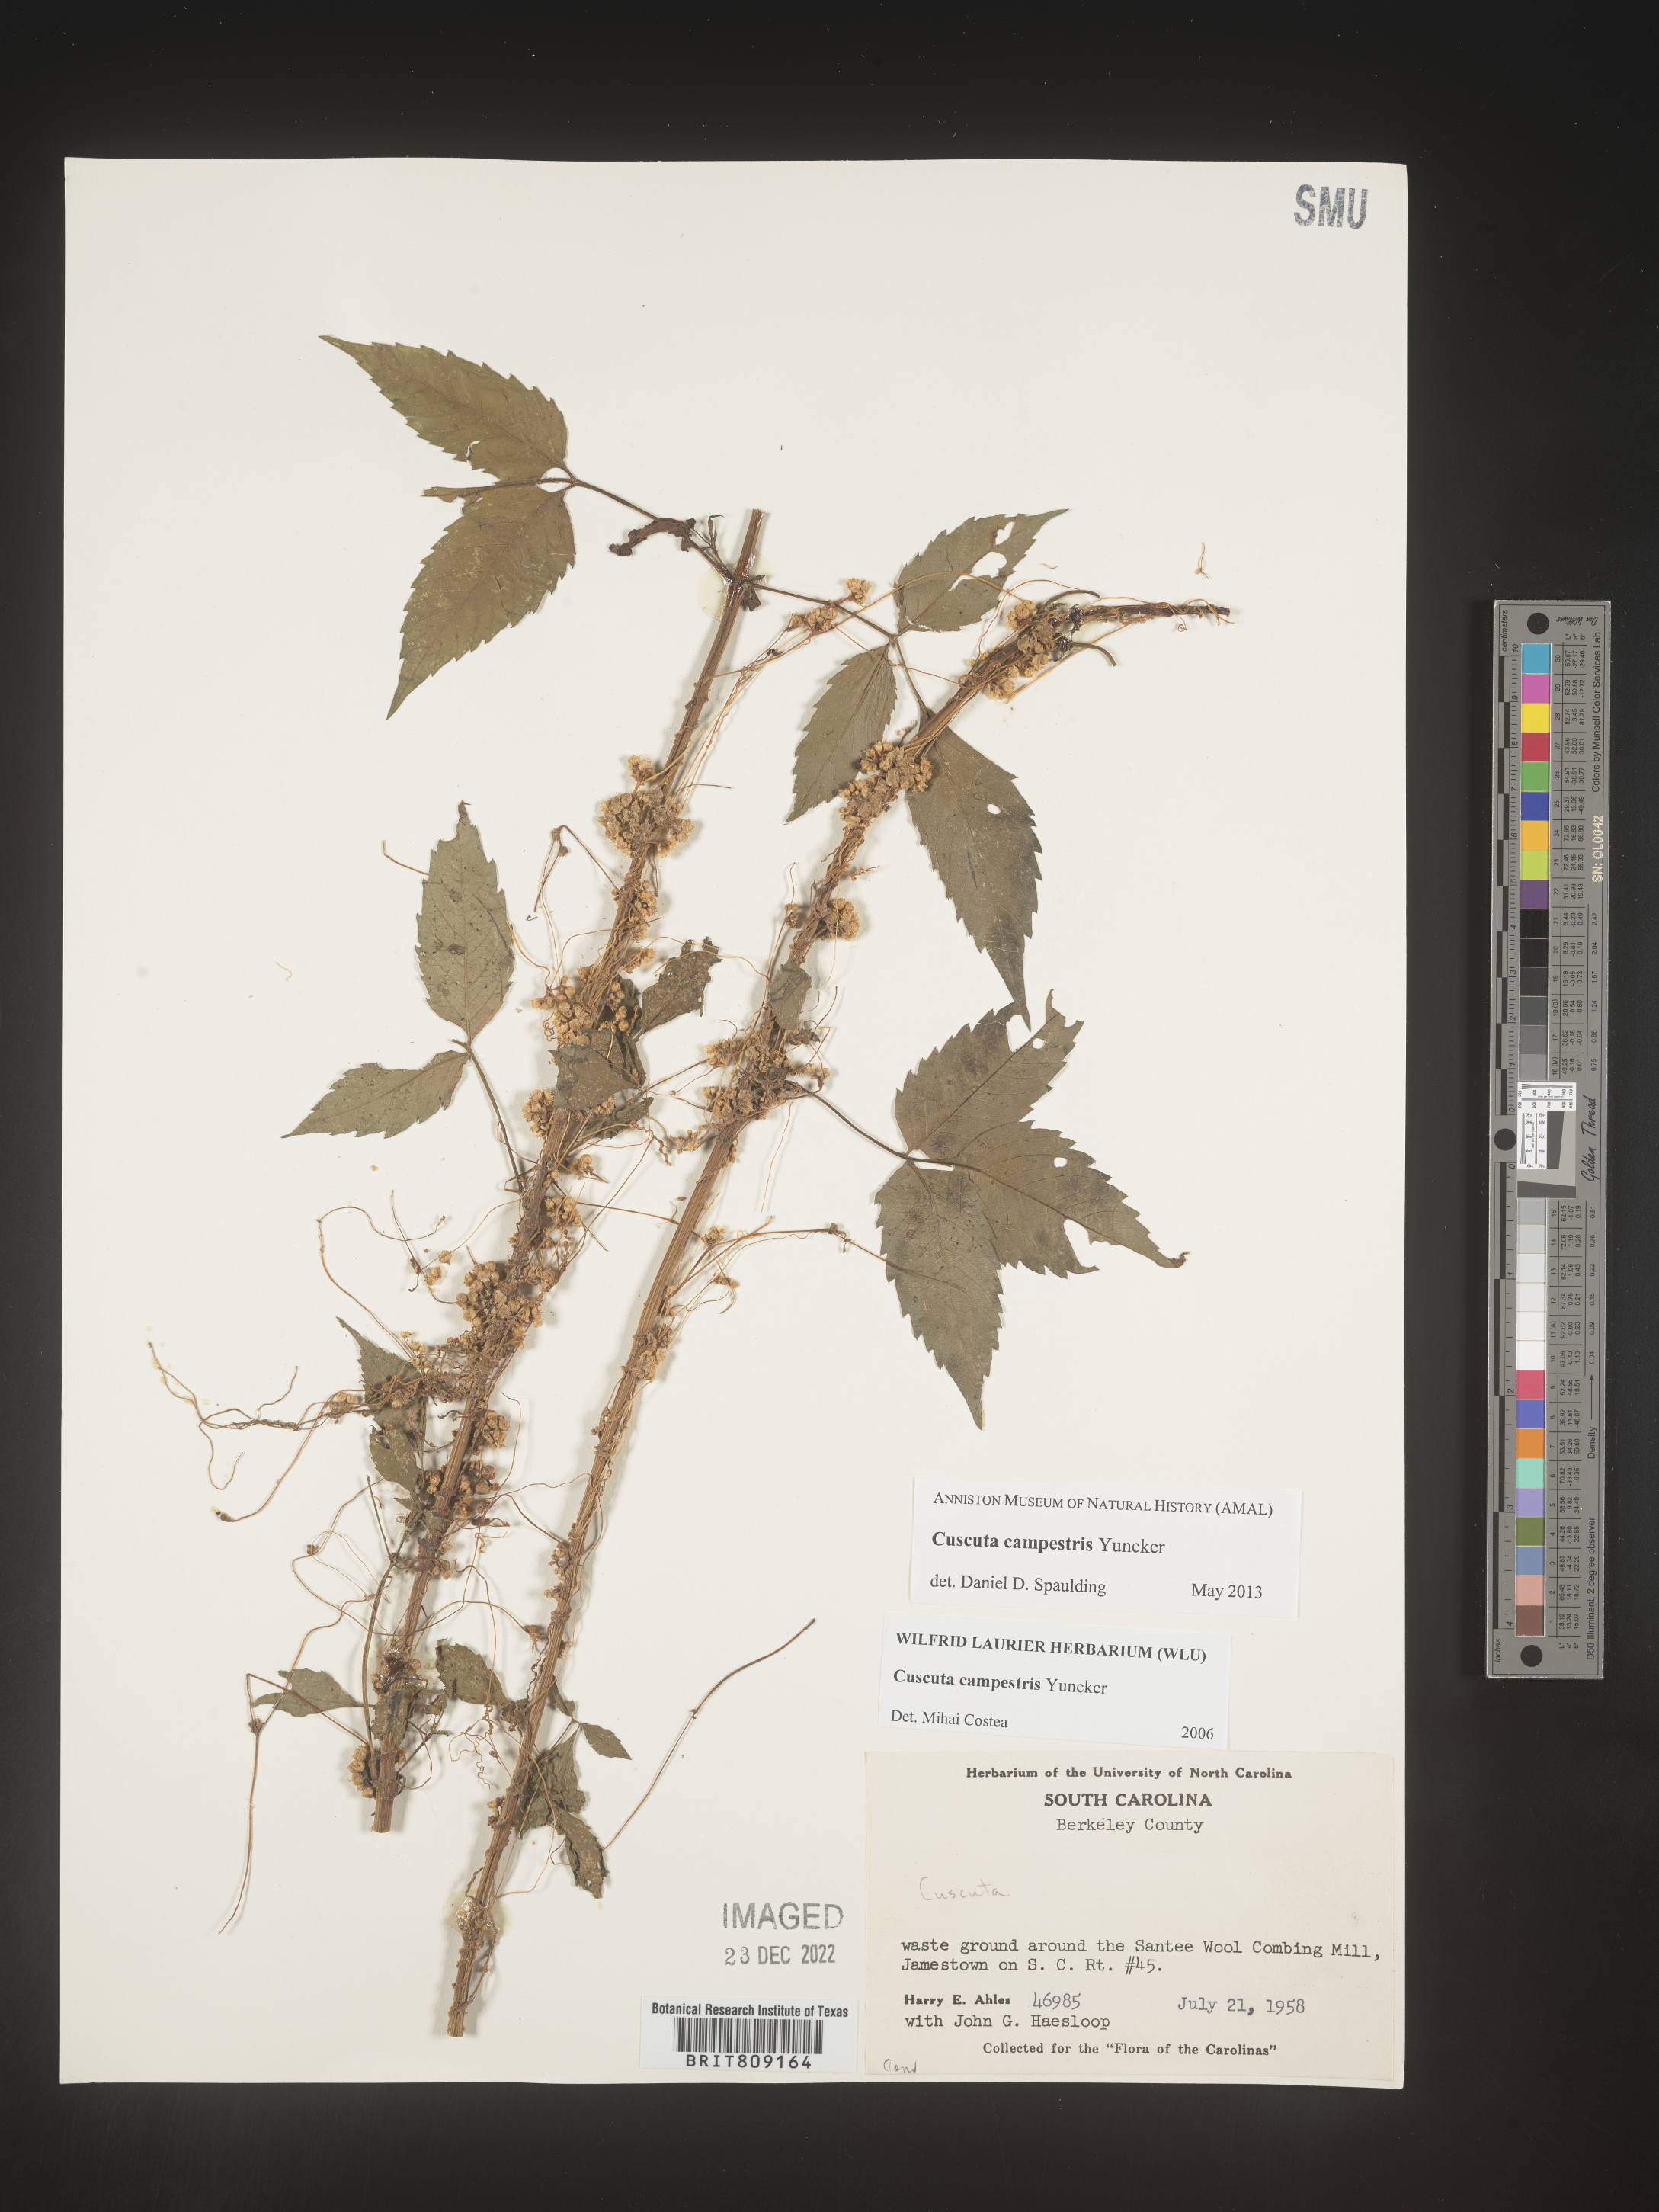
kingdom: Plantae
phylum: Tracheophyta
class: Magnoliopsida
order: Solanales
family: Convolvulaceae
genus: Cuscuta
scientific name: Cuscuta campestris
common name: Yellow dodder
